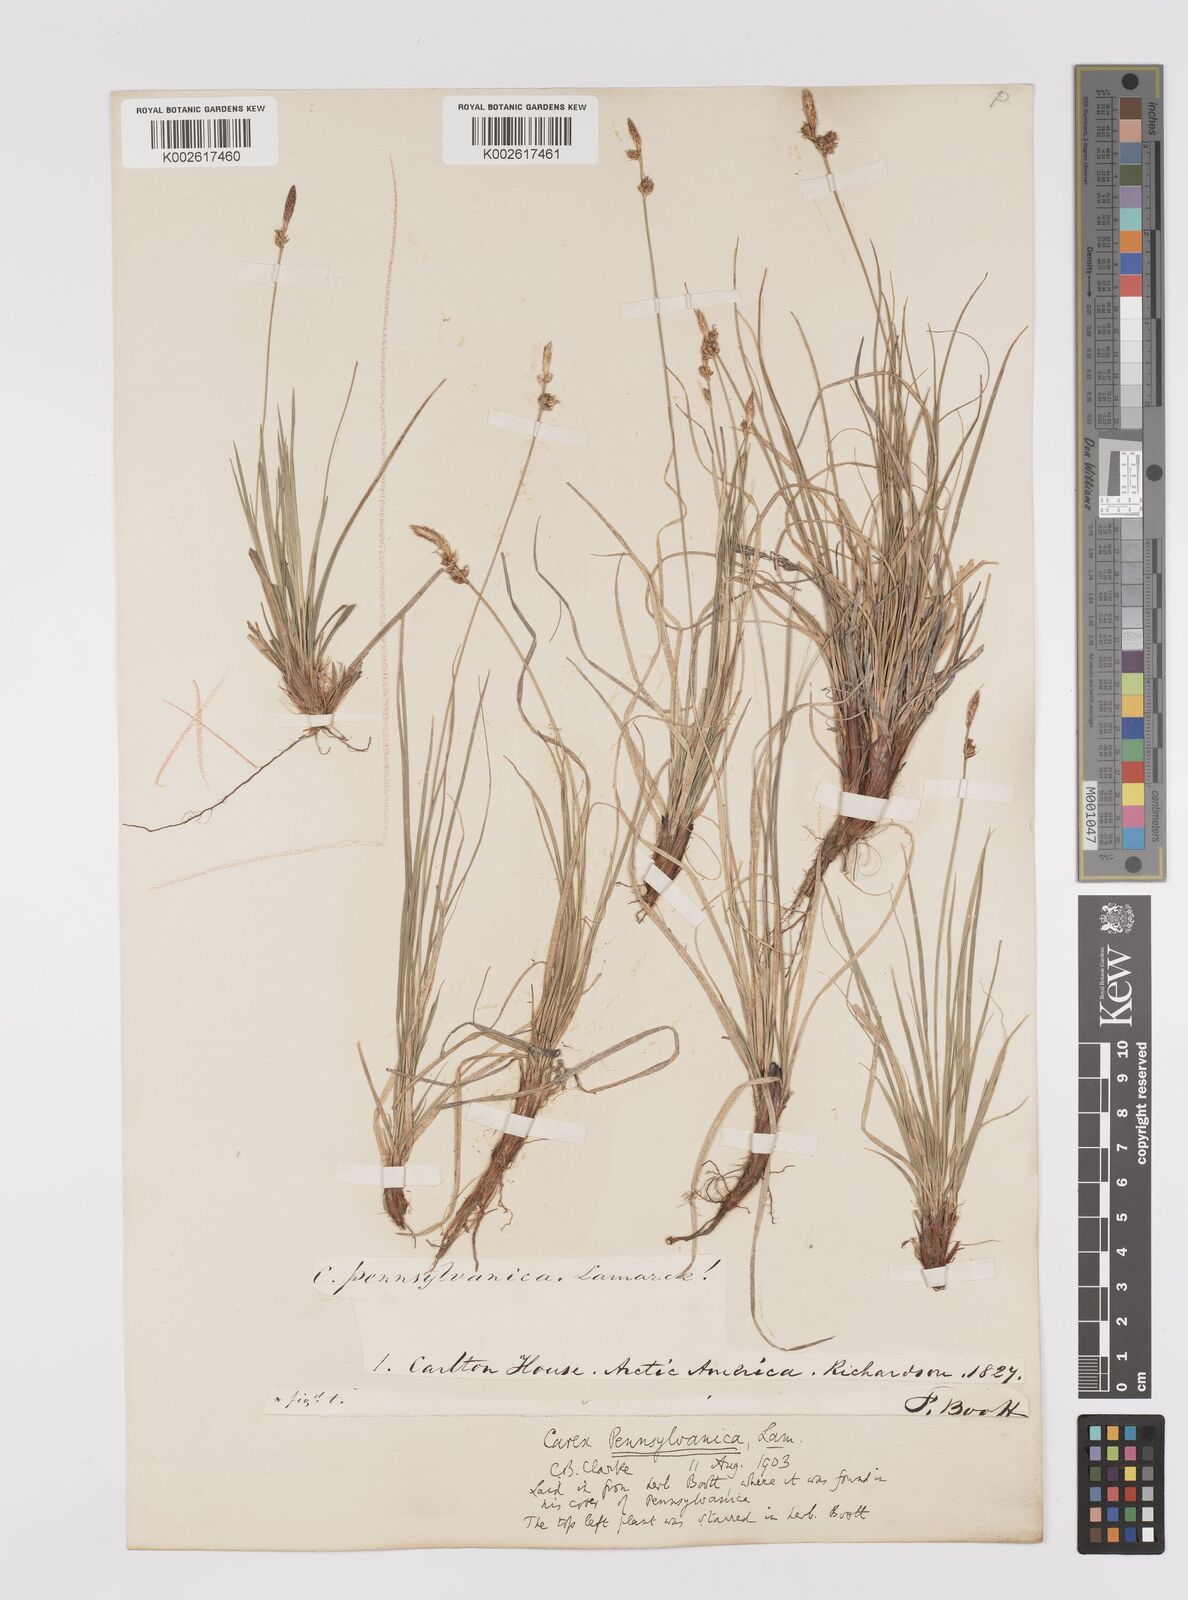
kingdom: Plantae
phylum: Tracheophyta
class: Liliopsida
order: Poales
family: Cyperaceae
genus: Carex
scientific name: Carex pensylvanica
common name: Common oak sedge
